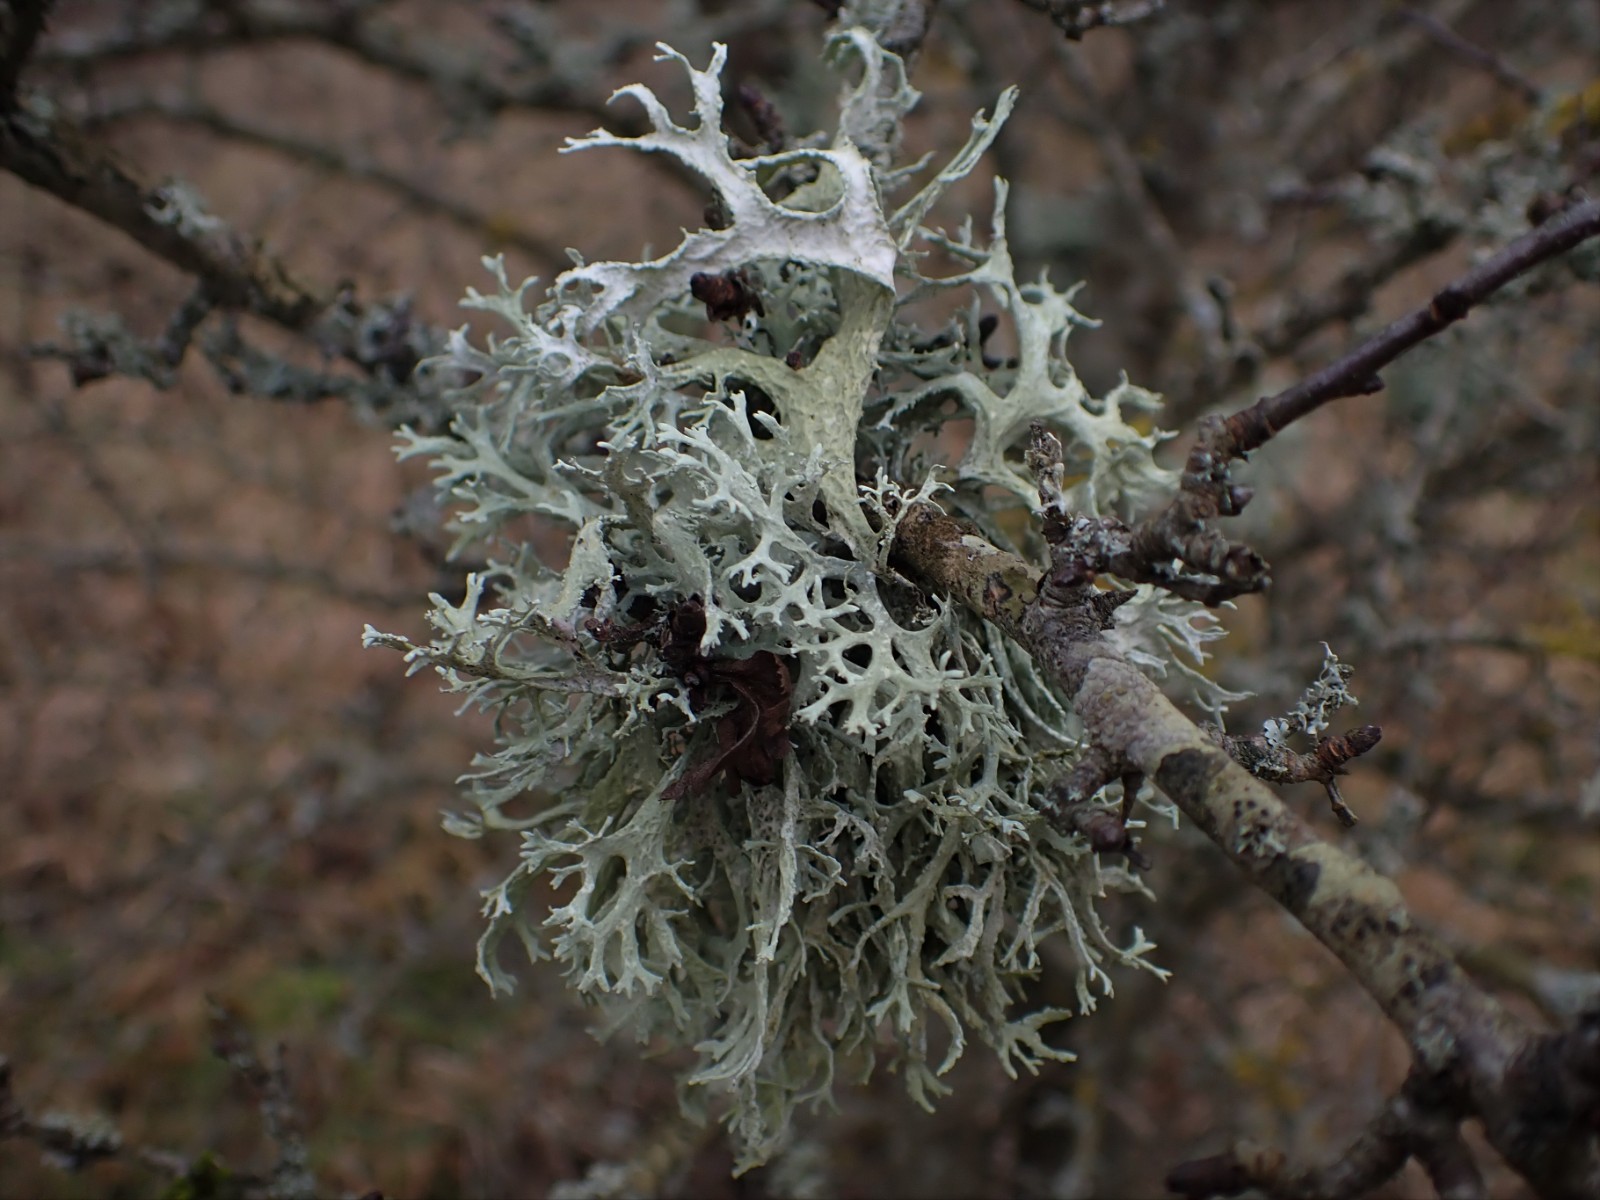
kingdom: Fungi
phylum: Ascomycota
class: Lecanoromycetes
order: Lecanorales
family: Parmeliaceae
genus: Evernia
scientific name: Evernia prunastri
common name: almindelig slåenlav
